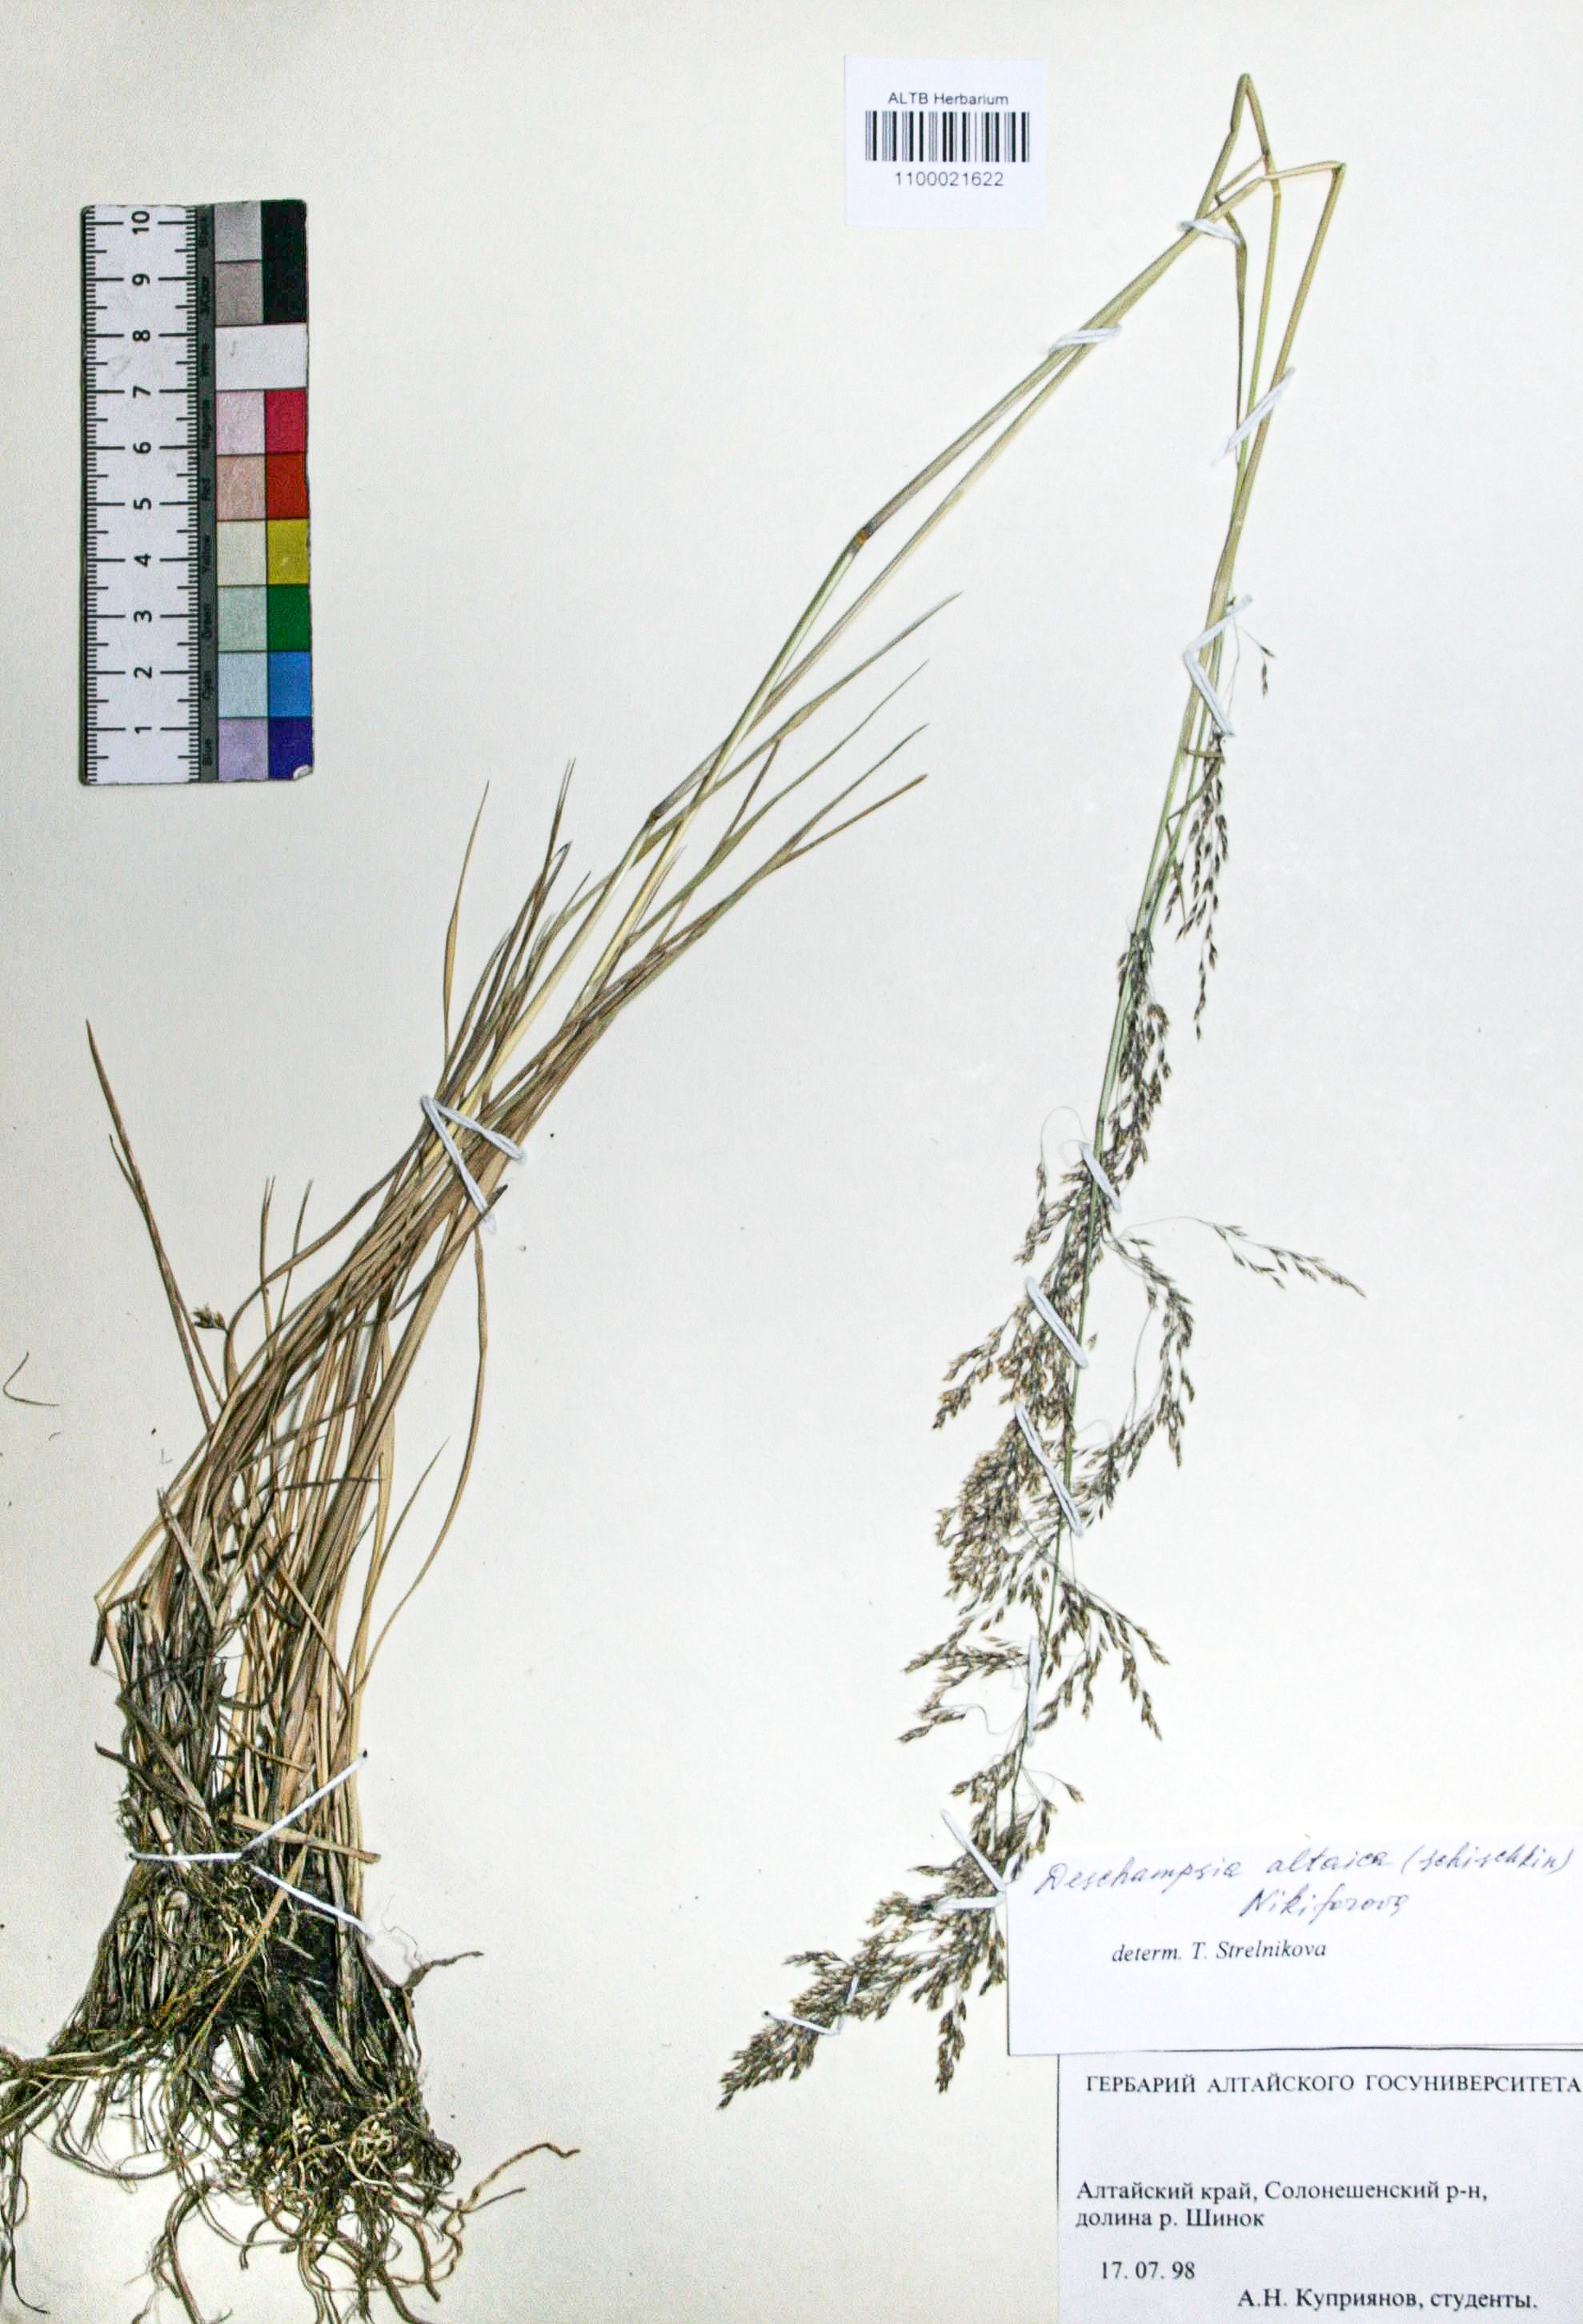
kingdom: Plantae
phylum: Tracheophyta
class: Liliopsida
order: Poales
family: Poaceae
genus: Deschampsia
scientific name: Deschampsia cespitosa
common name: Tufted hair-grass
